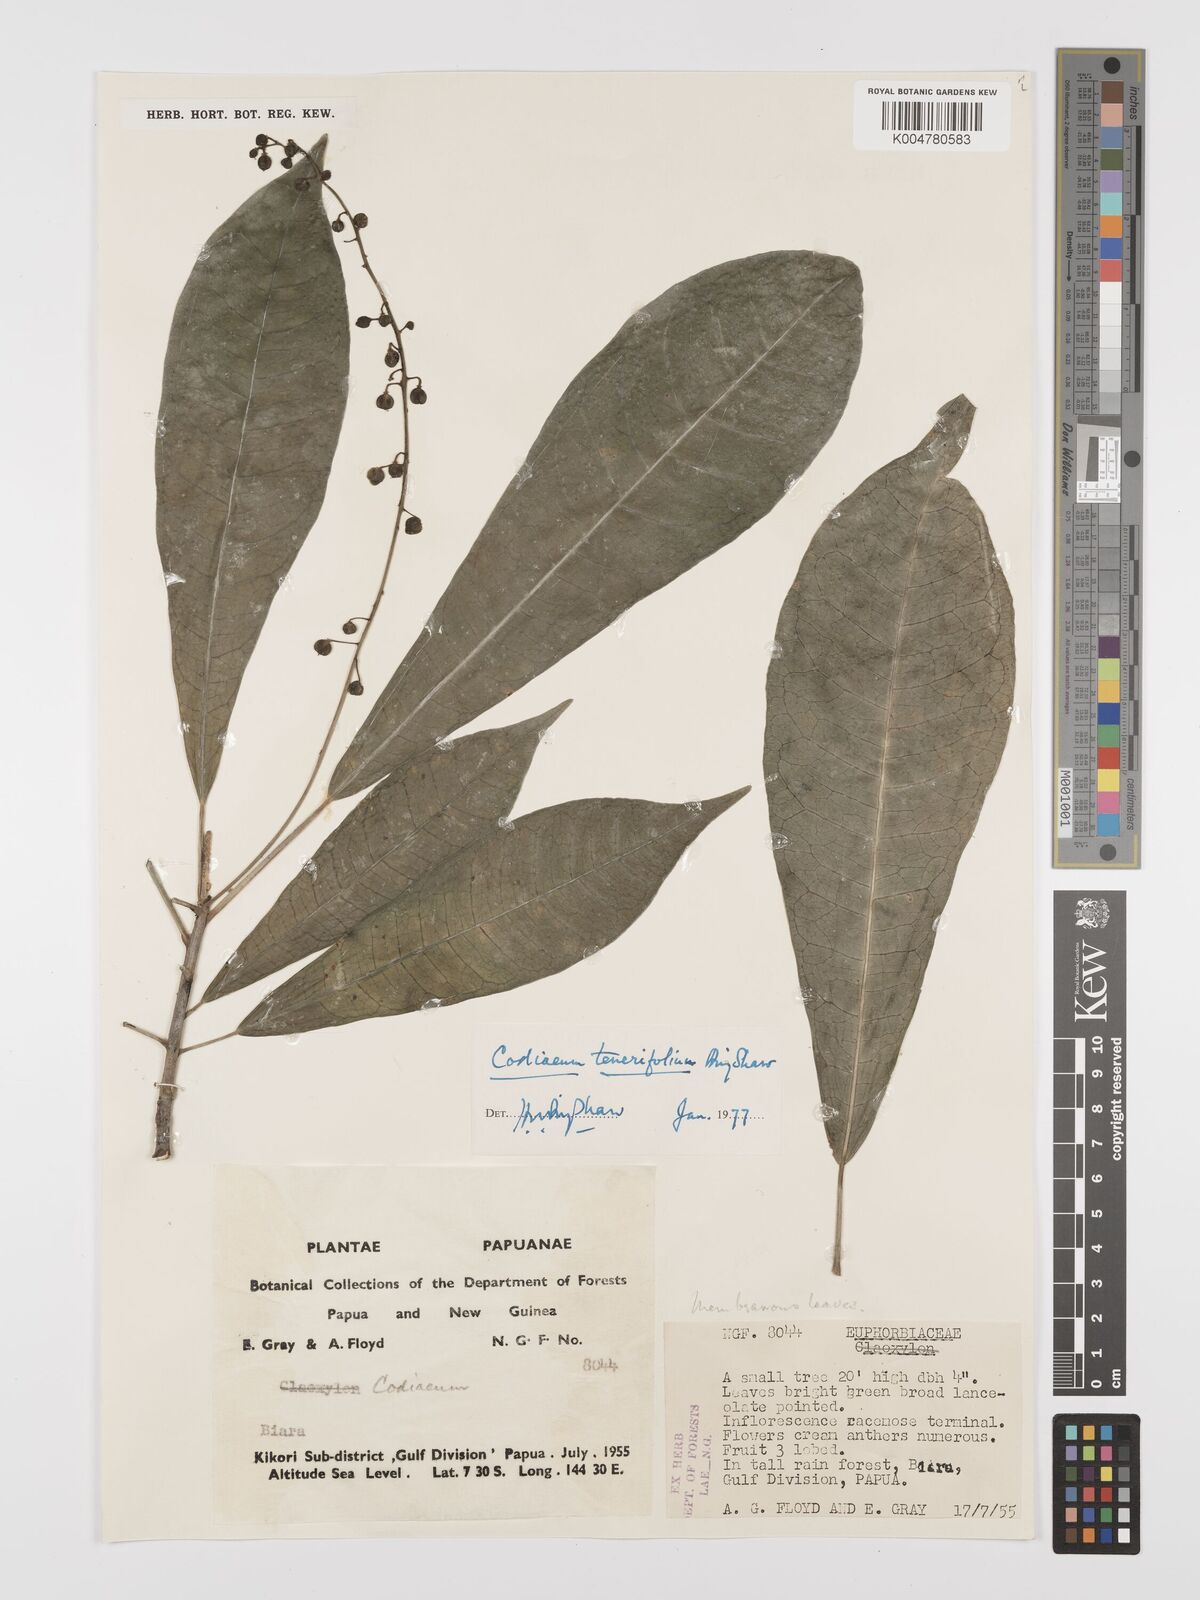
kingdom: Plantae
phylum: Tracheophyta
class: Magnoliopsida
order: Malpighiales
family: Euphorbiaceae
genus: Codiaeum
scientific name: Codiaeum tenerifolium
